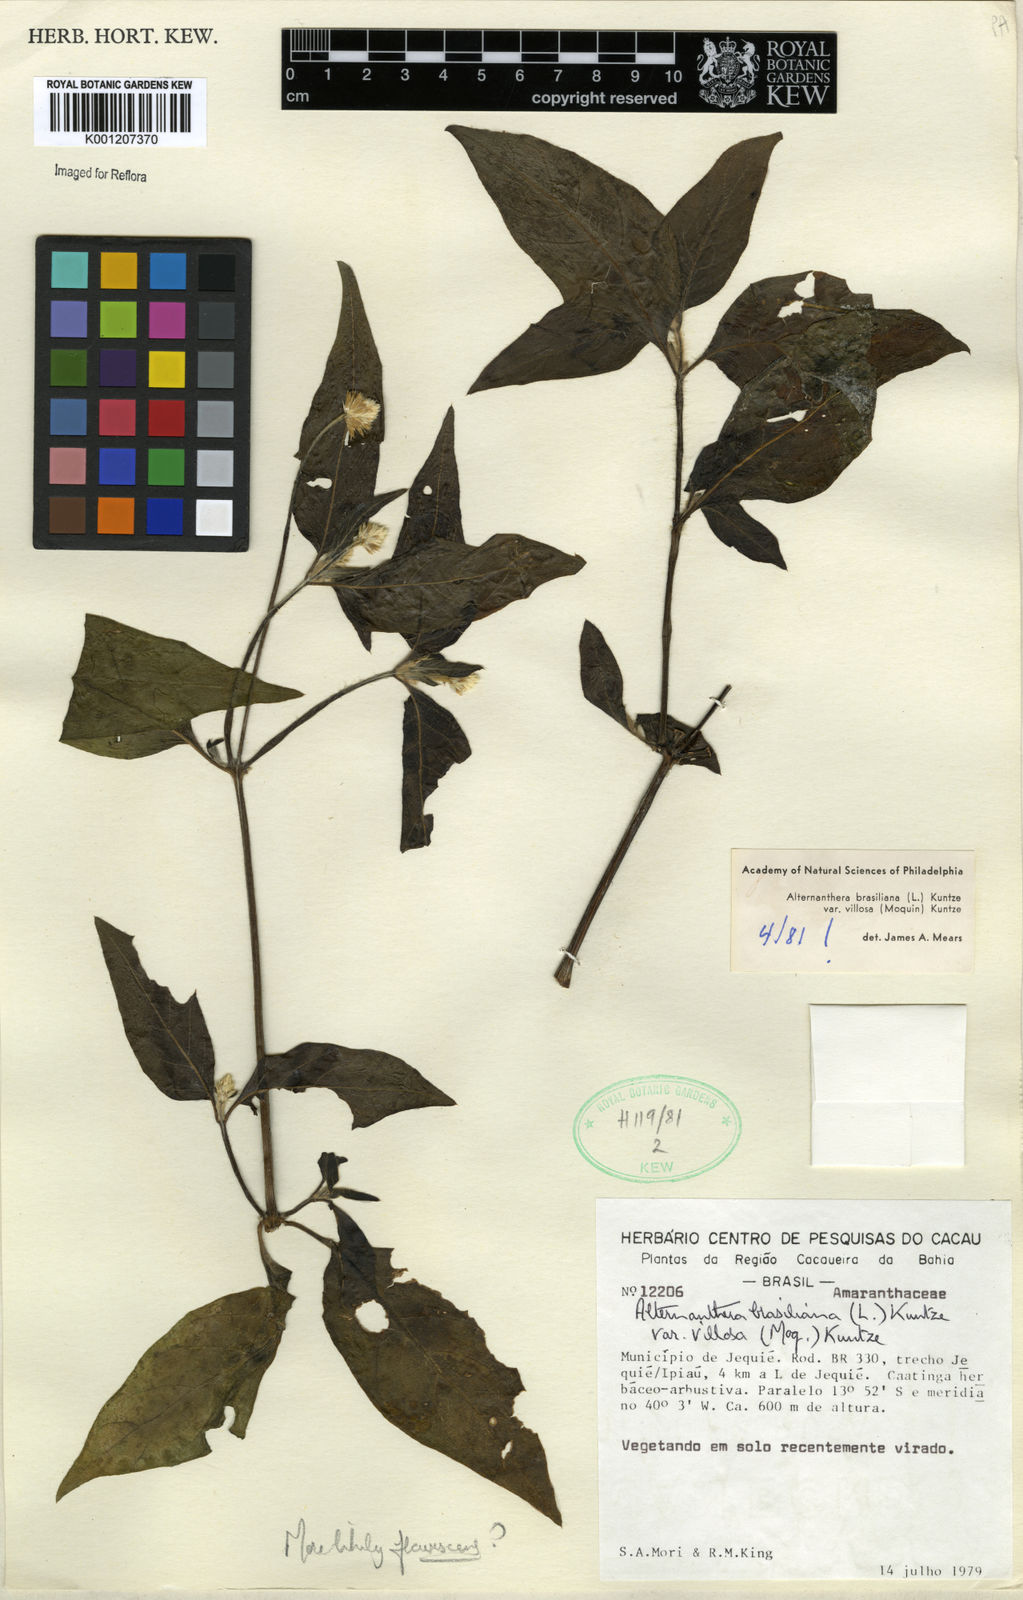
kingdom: Plantae
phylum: Tracheophyta
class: Magnoliopsida
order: Caryophyllales
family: Amaranthaceae
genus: Alternanthera
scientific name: Alternanthera ramosissima
